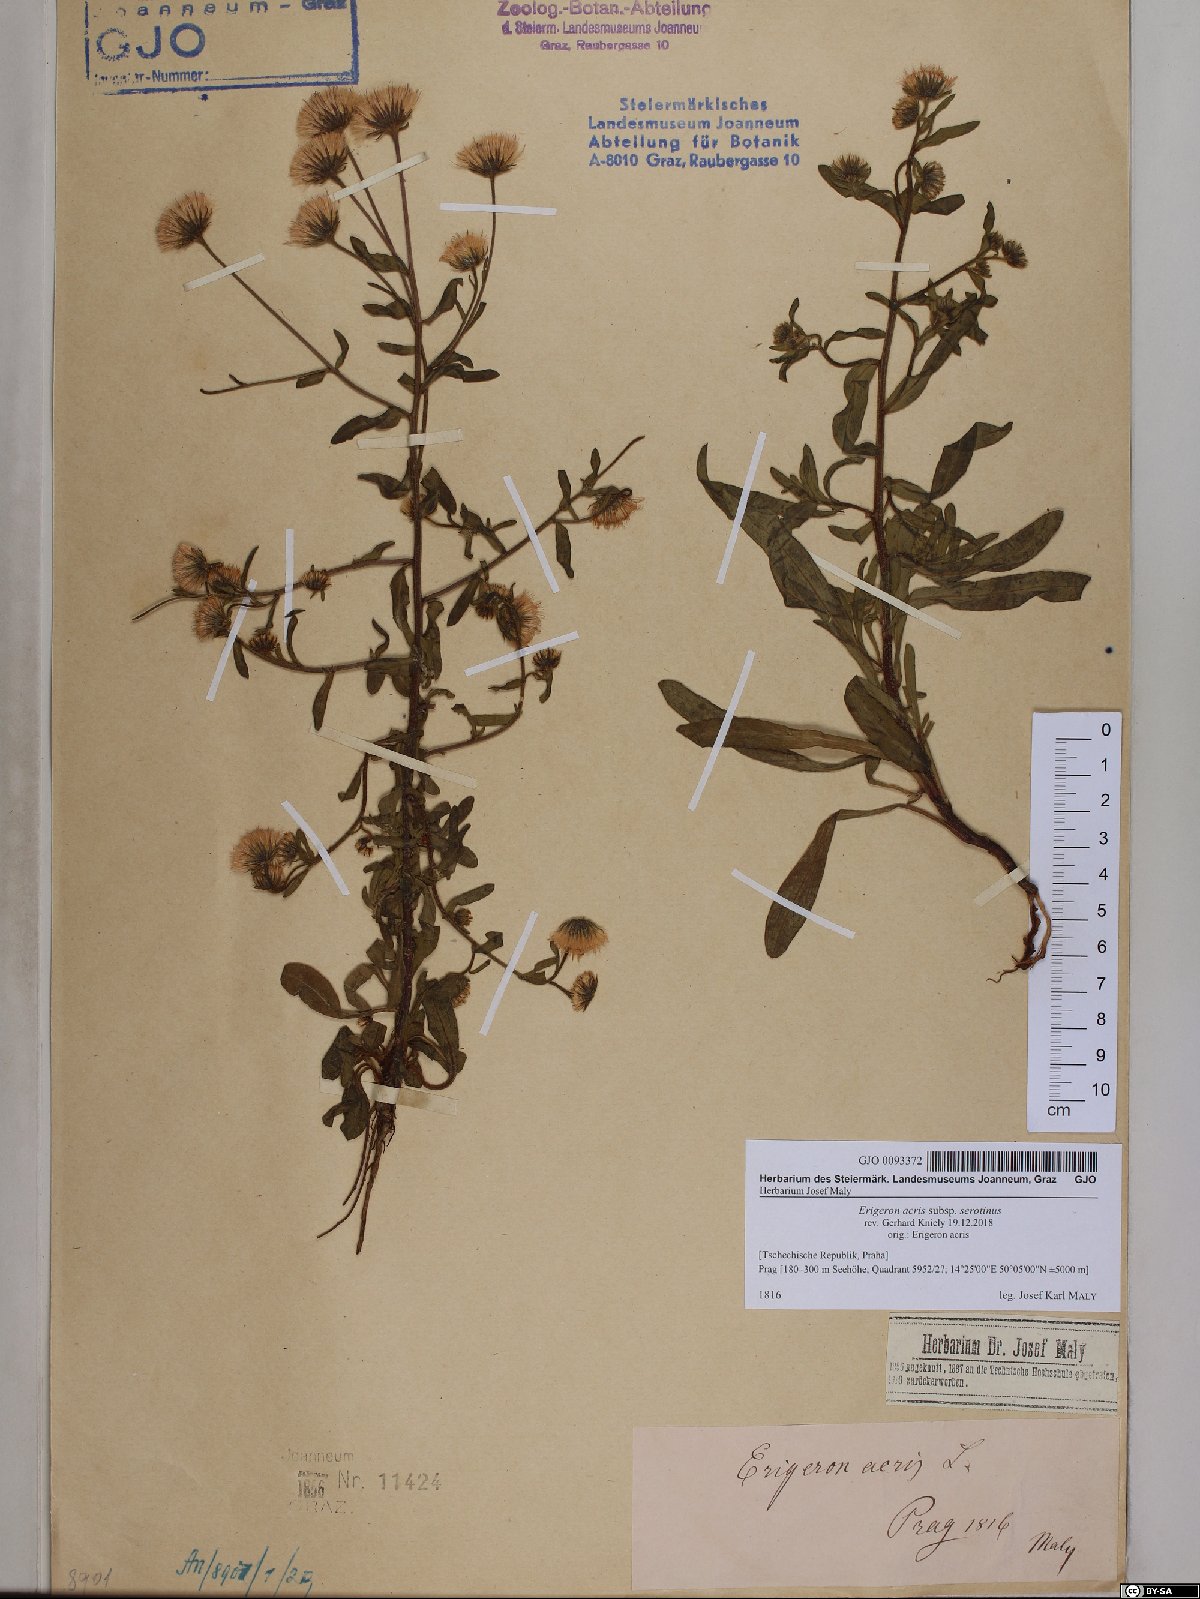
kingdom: Plantae
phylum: Tracheophyta
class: Magnoliopsida
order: Asterales
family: Asteraceae
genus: Erigeron
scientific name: Erigeron muralis
